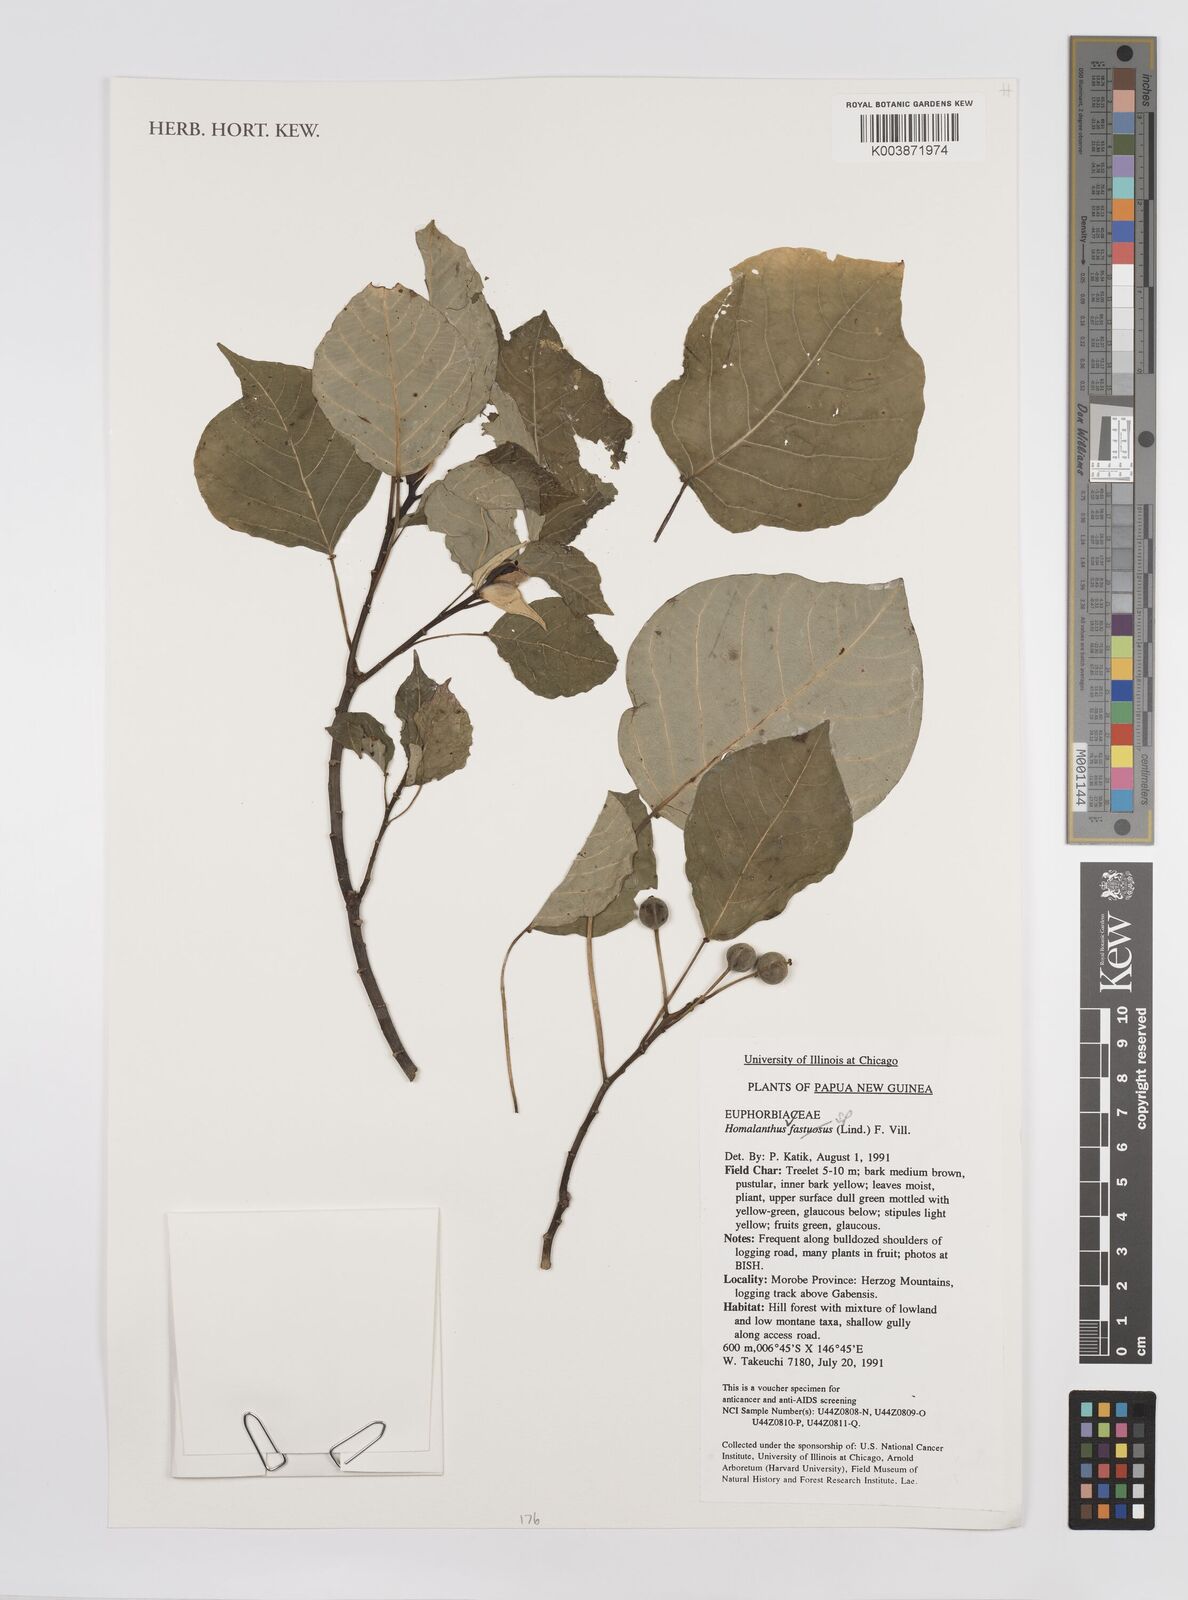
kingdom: Plantae
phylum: Tracheophyta
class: Magnoliopsida
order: Malpighiales
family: Euphorbiaceae
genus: Homalanthus
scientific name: Homalanthus
